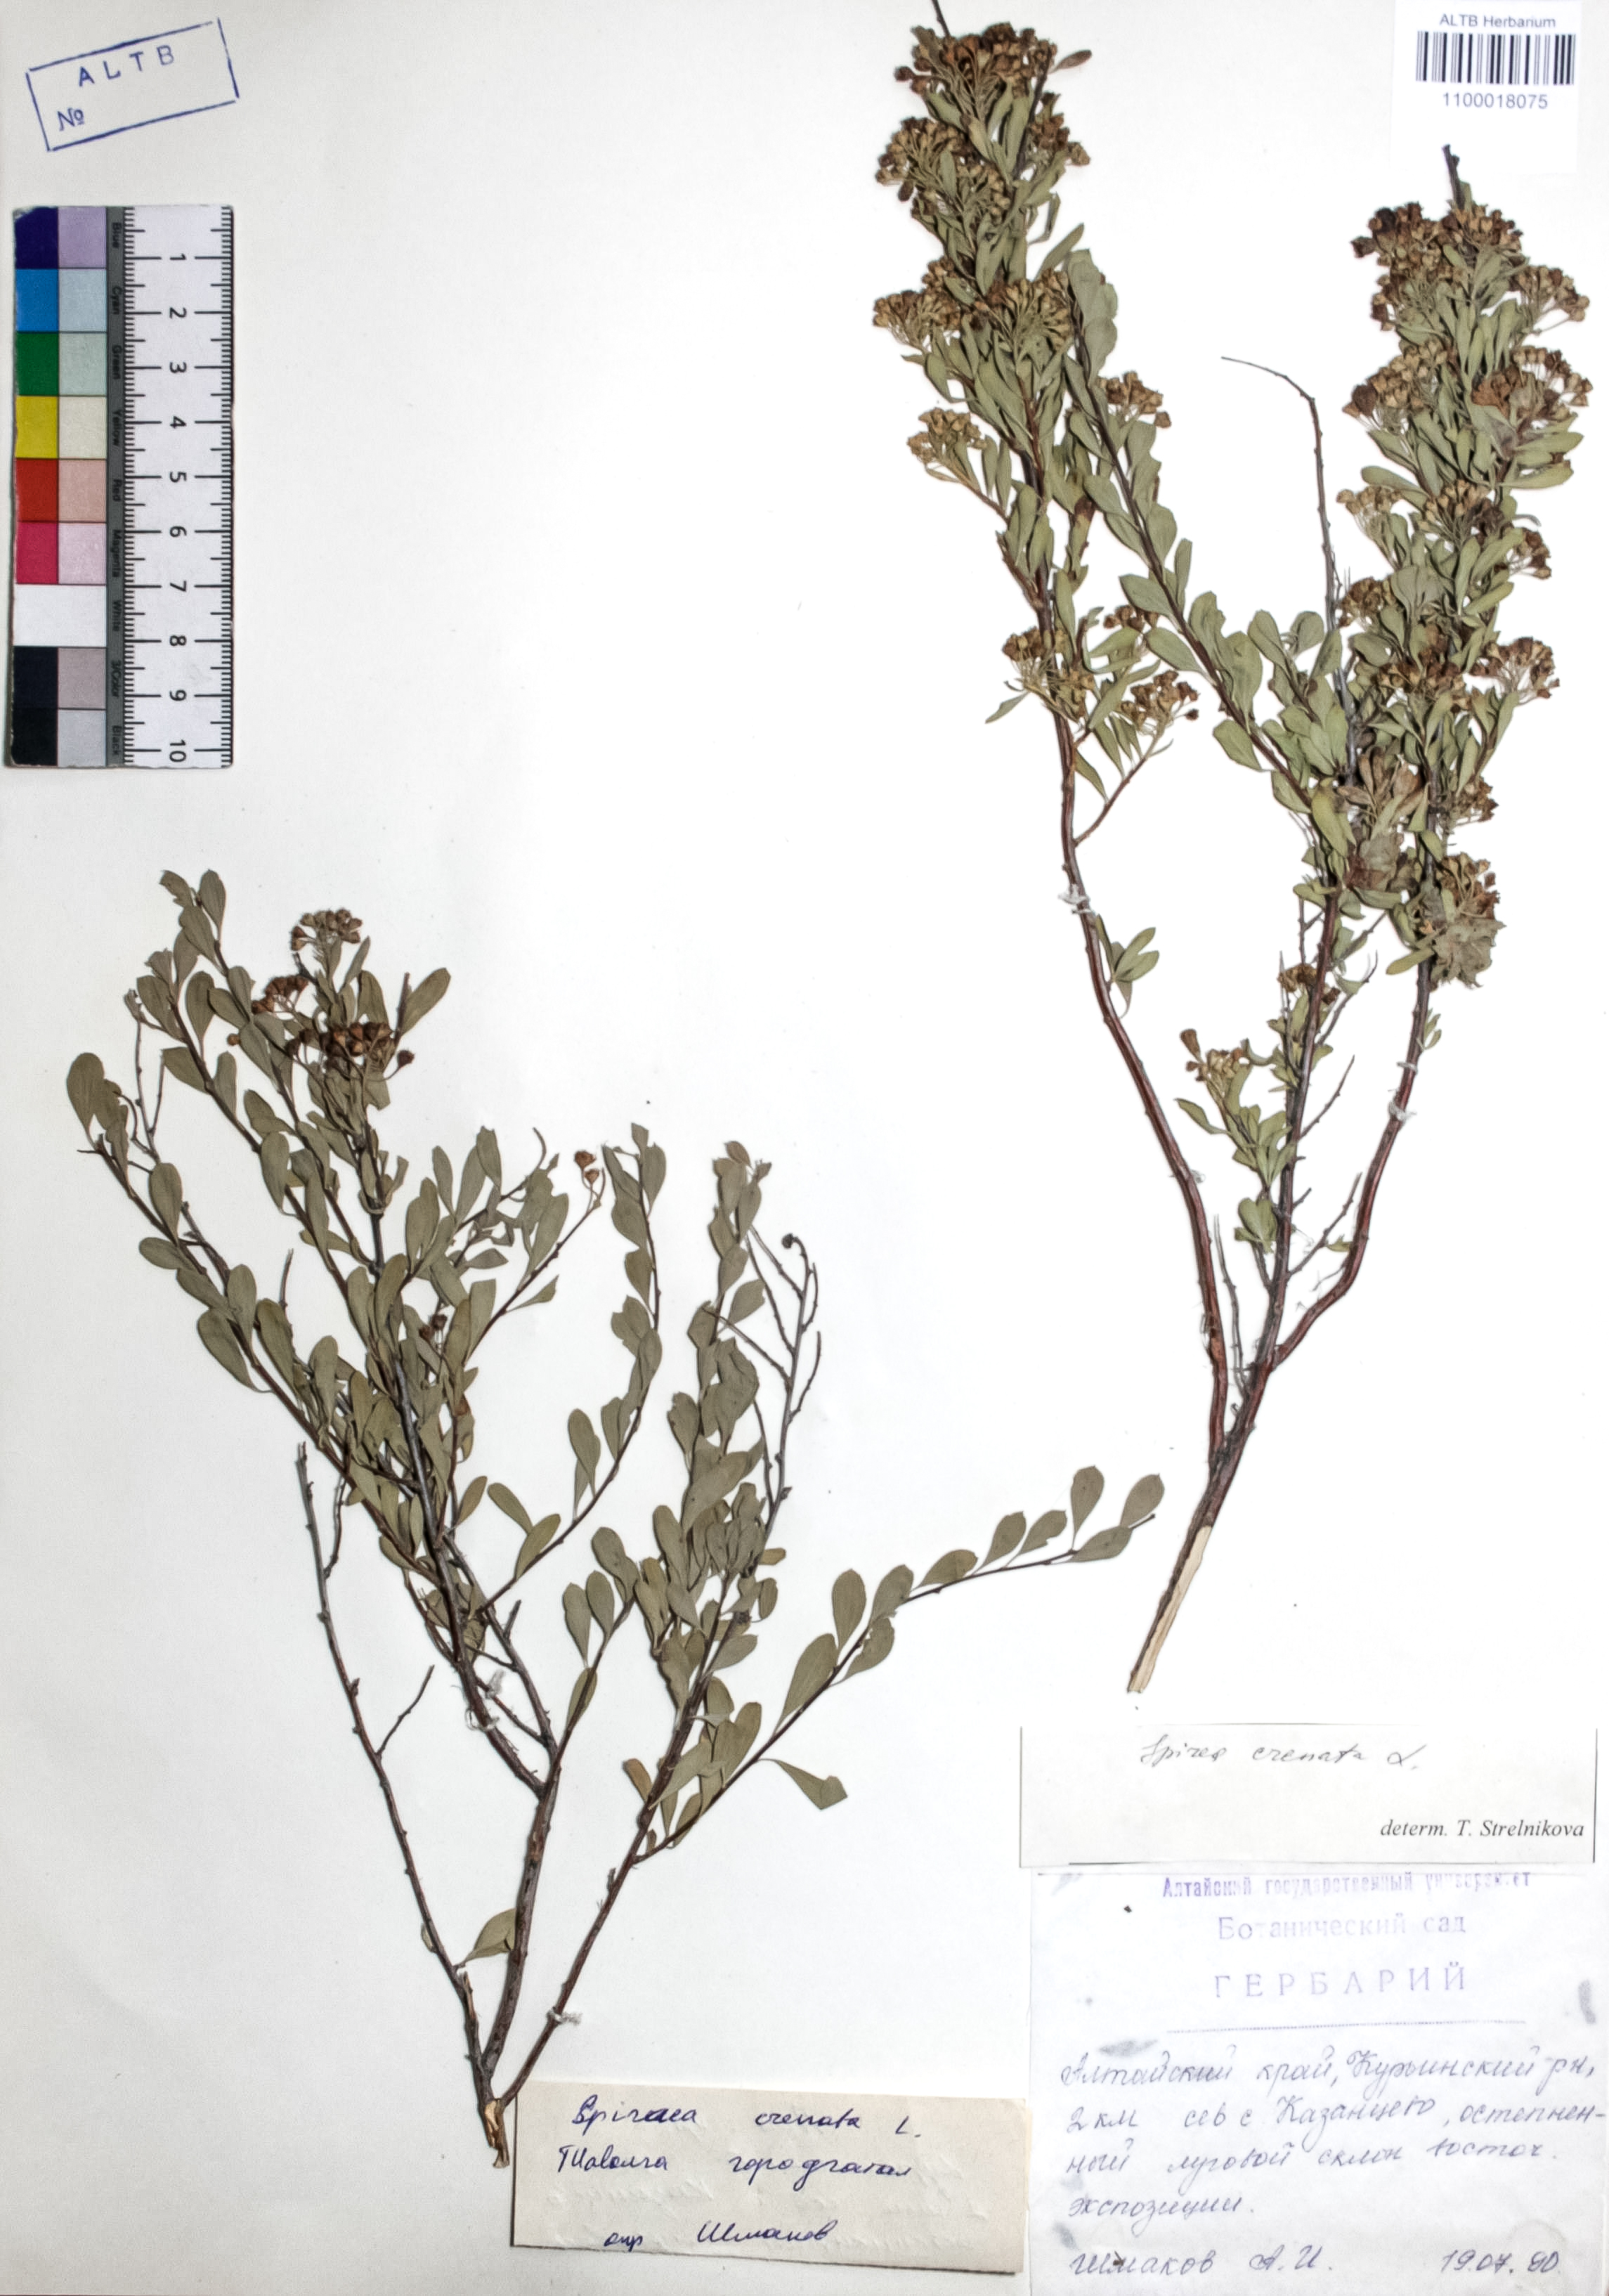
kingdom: Plantae
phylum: Tracheophyta
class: Magnoliopsida
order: Rosales
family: Rosaceae
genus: Spiraea
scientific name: Spiraea crenata
